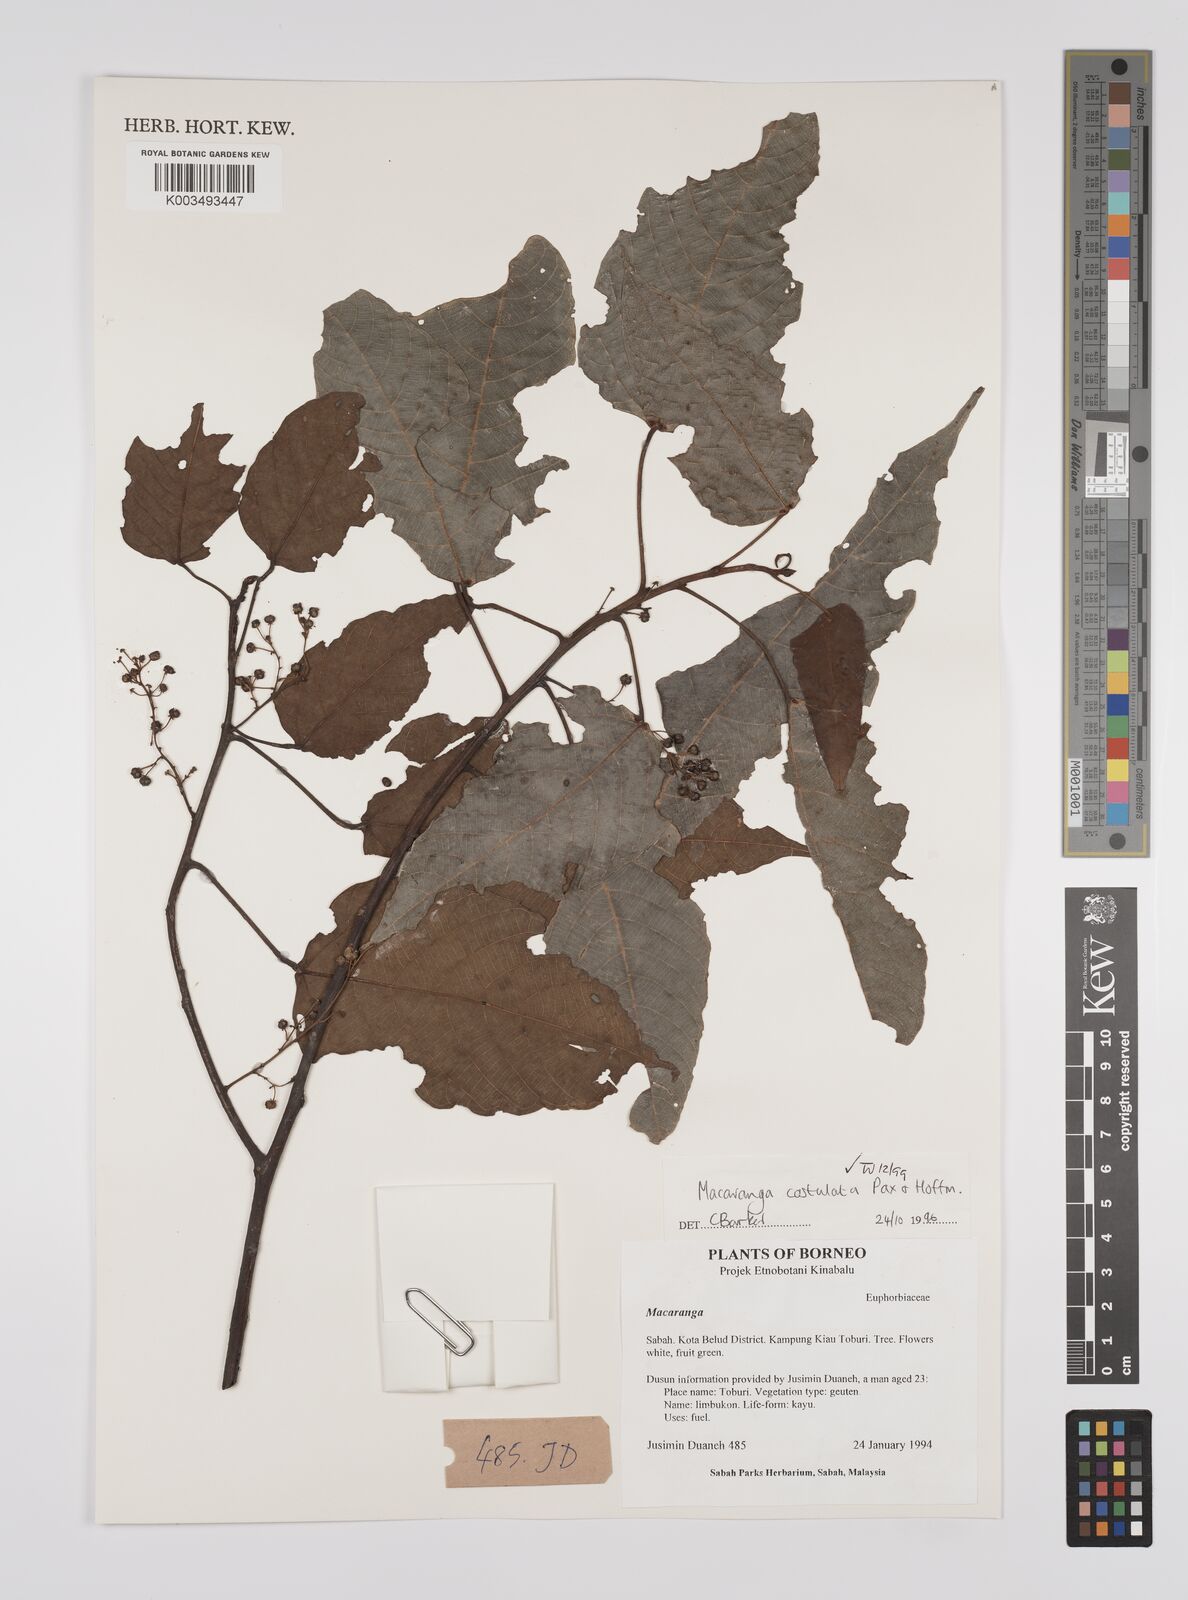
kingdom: Plantae
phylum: Tracheophyta
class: Magnoliopsida
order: Malpighiales
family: Euphorbiaceae
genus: Macaranga
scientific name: Macaranga costulata
